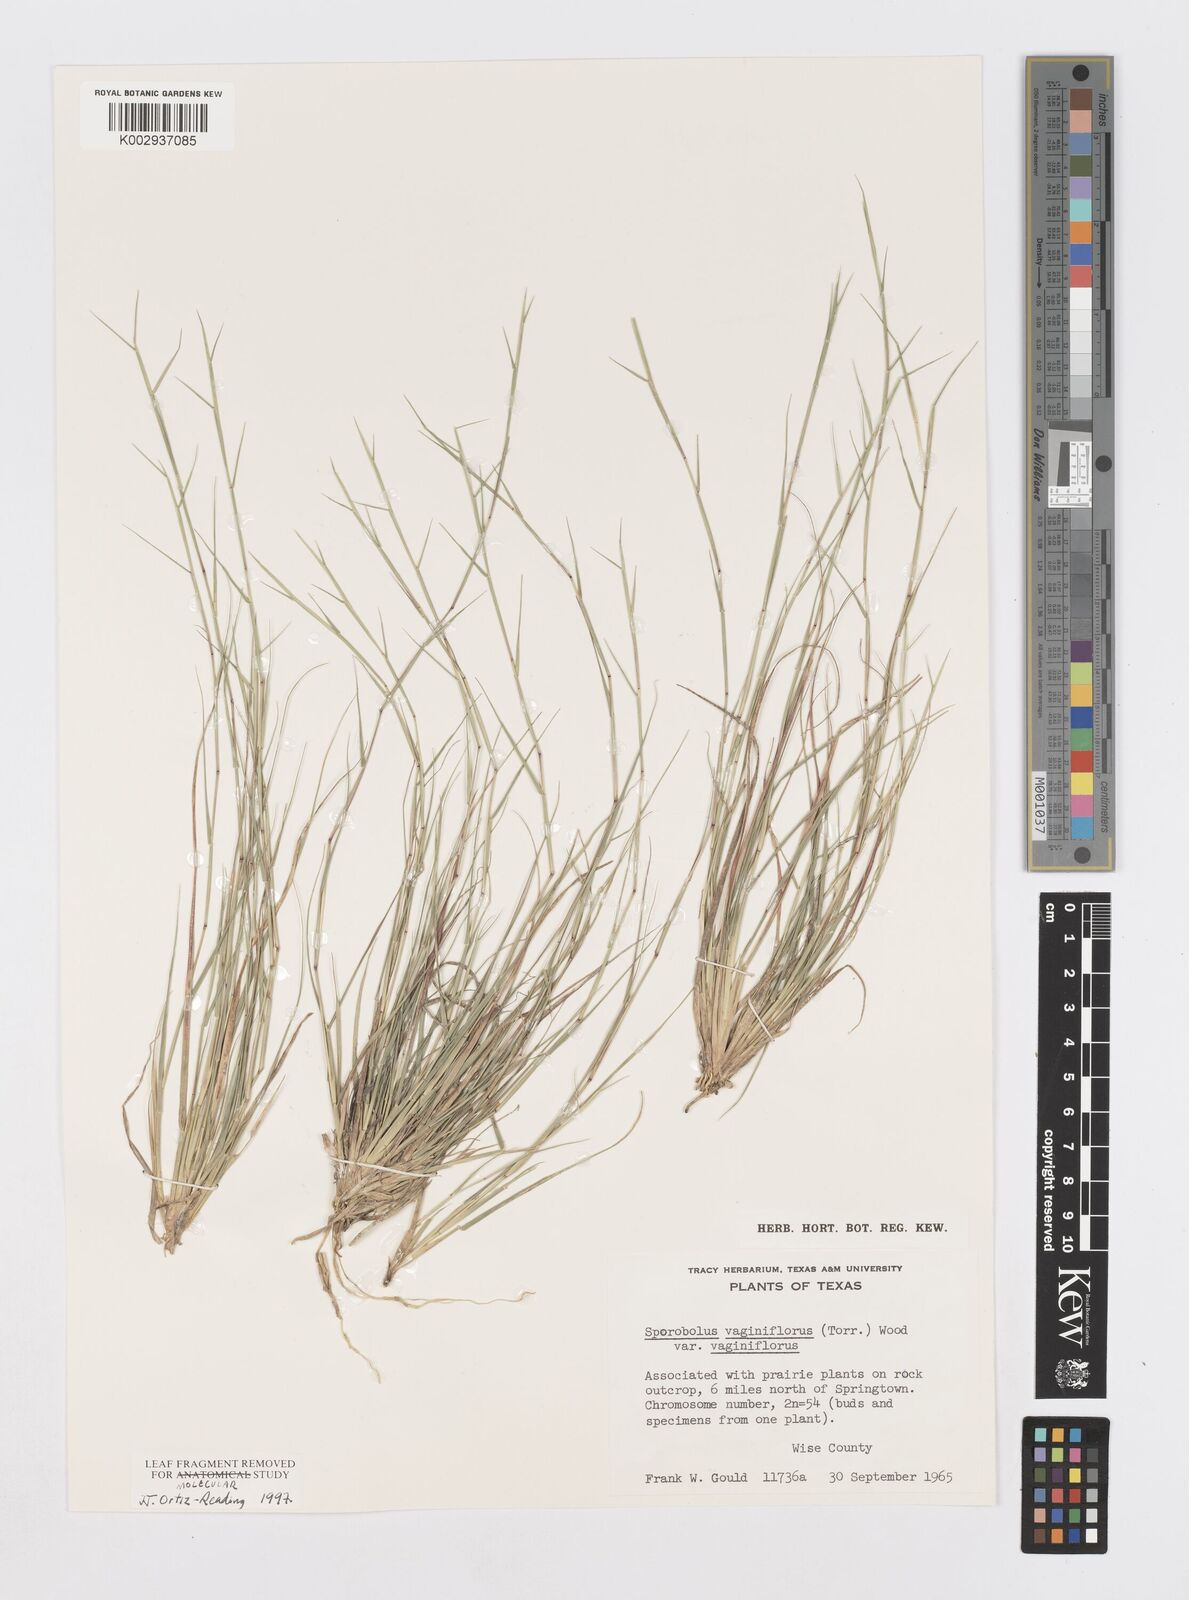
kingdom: Plantae
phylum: Tracheophyta
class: Liliopsida
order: Poales
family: Poaceae
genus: Sporobolus
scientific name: Sporobolus vaginiflorus
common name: Poverty dropseed
